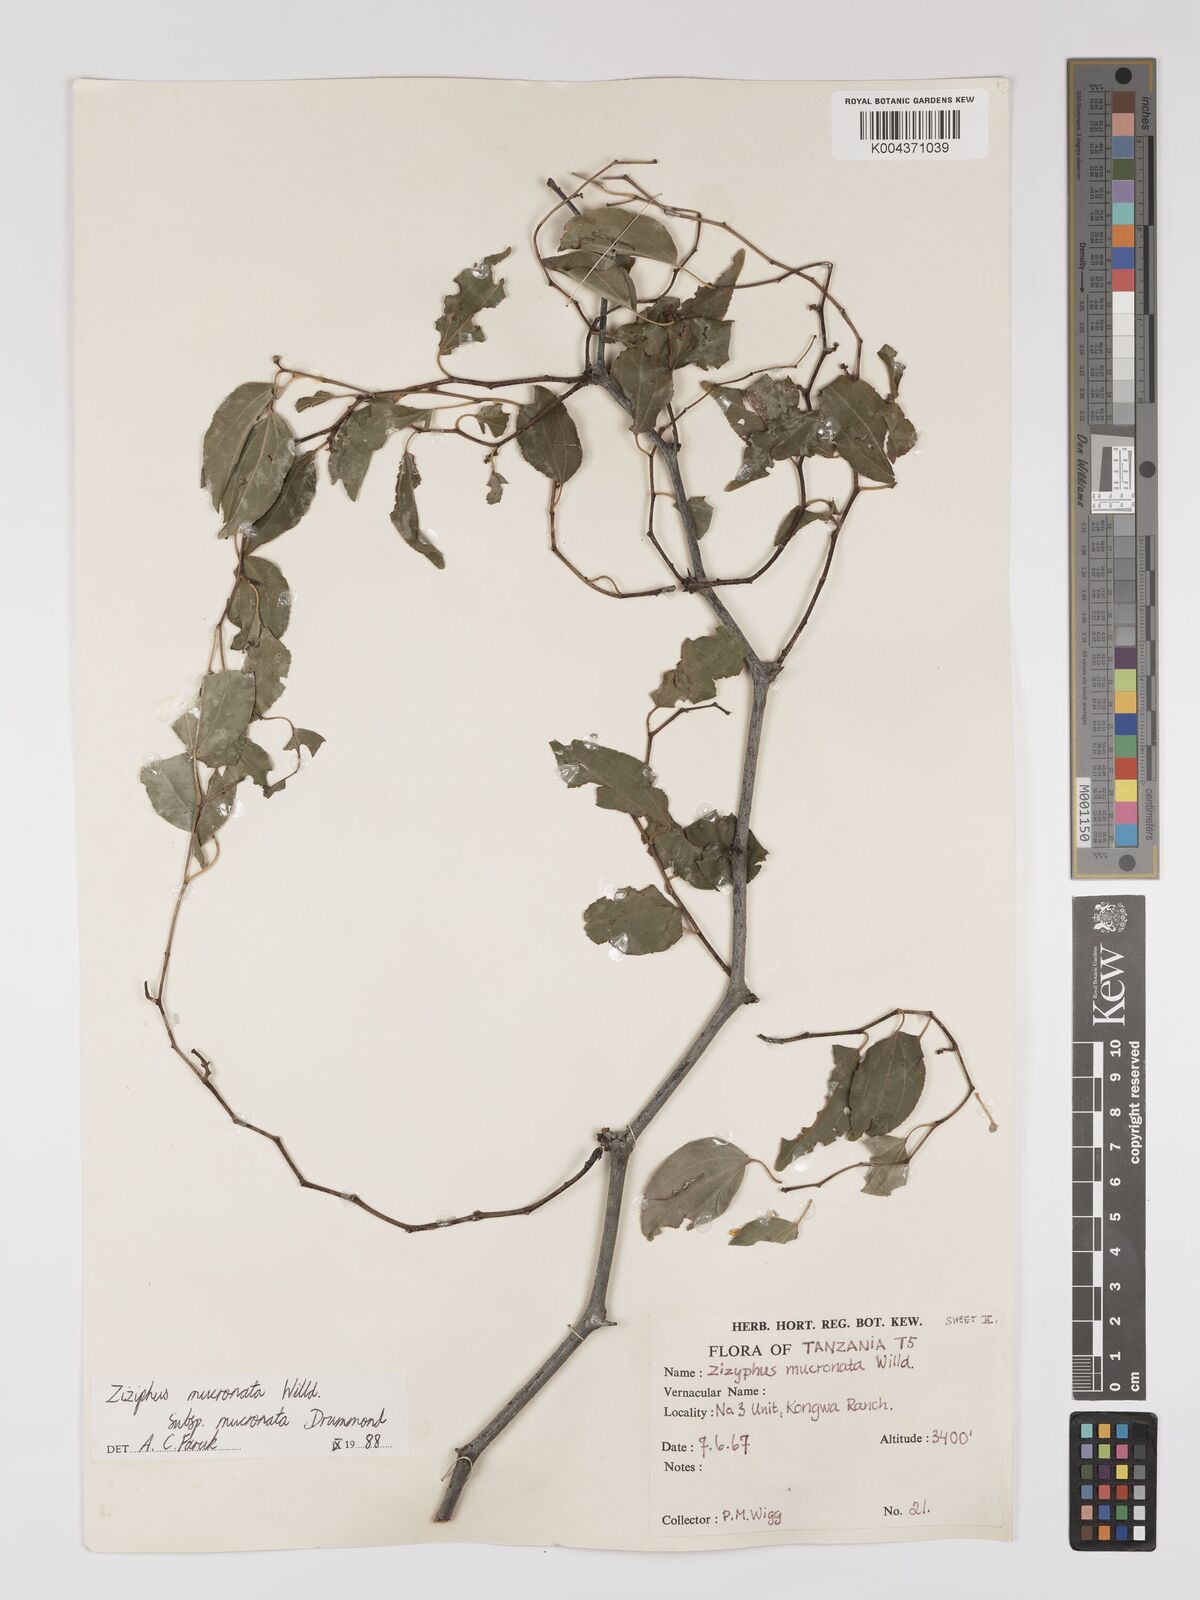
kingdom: Plantae
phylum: Tracheophyta
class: Magnoliopsida
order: Rosales
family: Rhamnaceae
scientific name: Rhamnaceae
